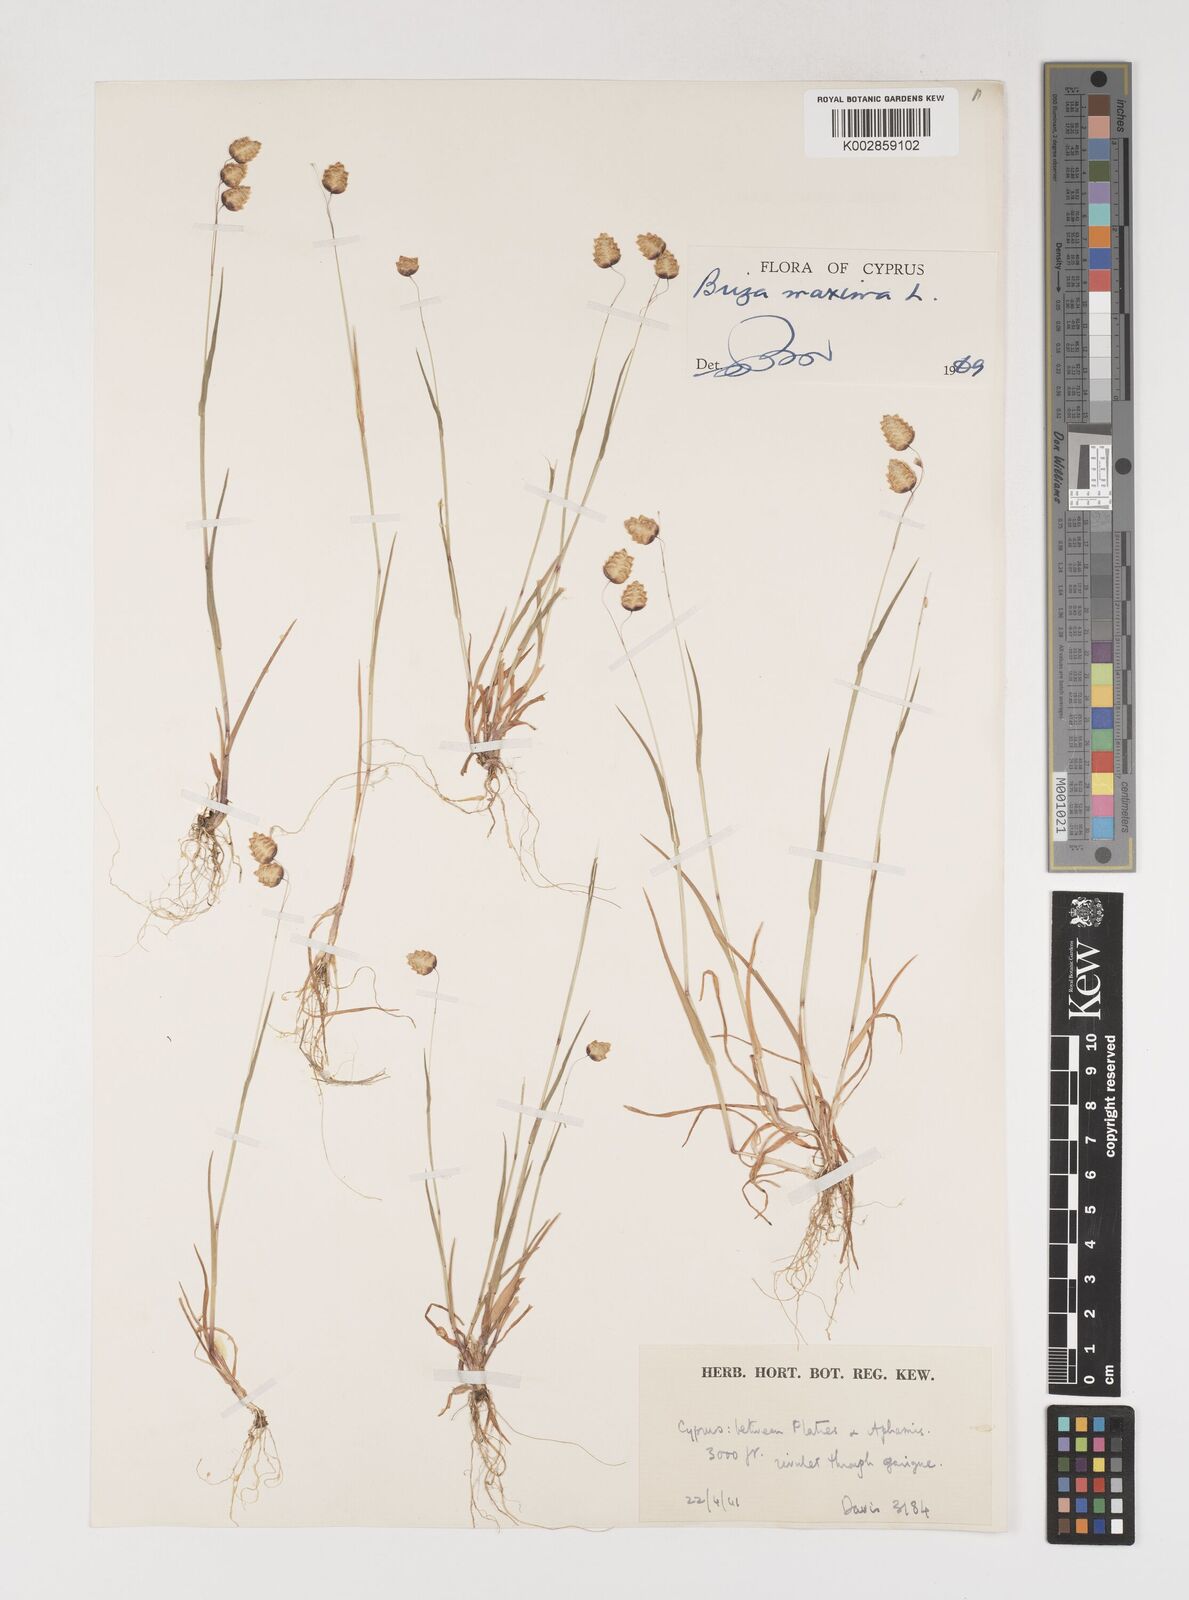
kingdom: Plantae
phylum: Tracheophyta
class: Liliopsida
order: Poales
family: Poaceae
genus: Briza
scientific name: Briza maxima
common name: Big quakinggrass
